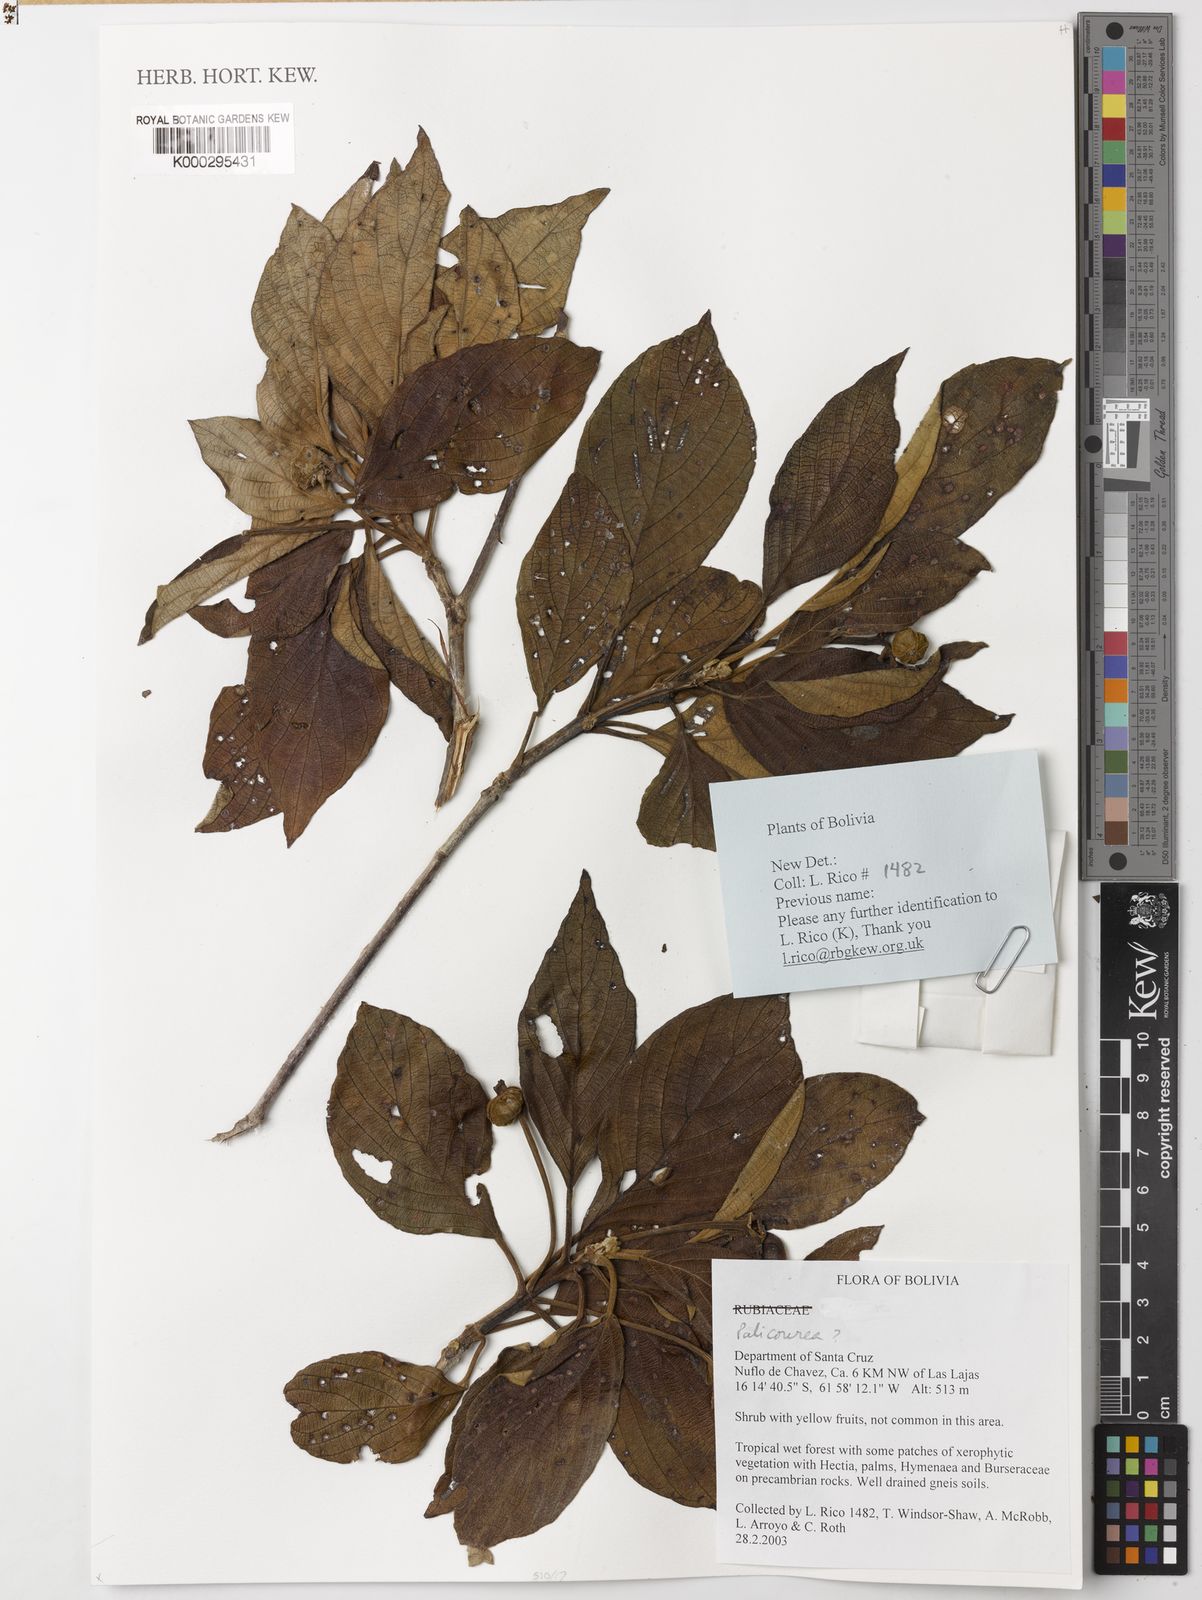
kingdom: Plantae
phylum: Tracheophyta
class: Magnoliopsida
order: Gentianales
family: Rubiaceae
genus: Guettarda
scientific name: Guettarda viburnoides
